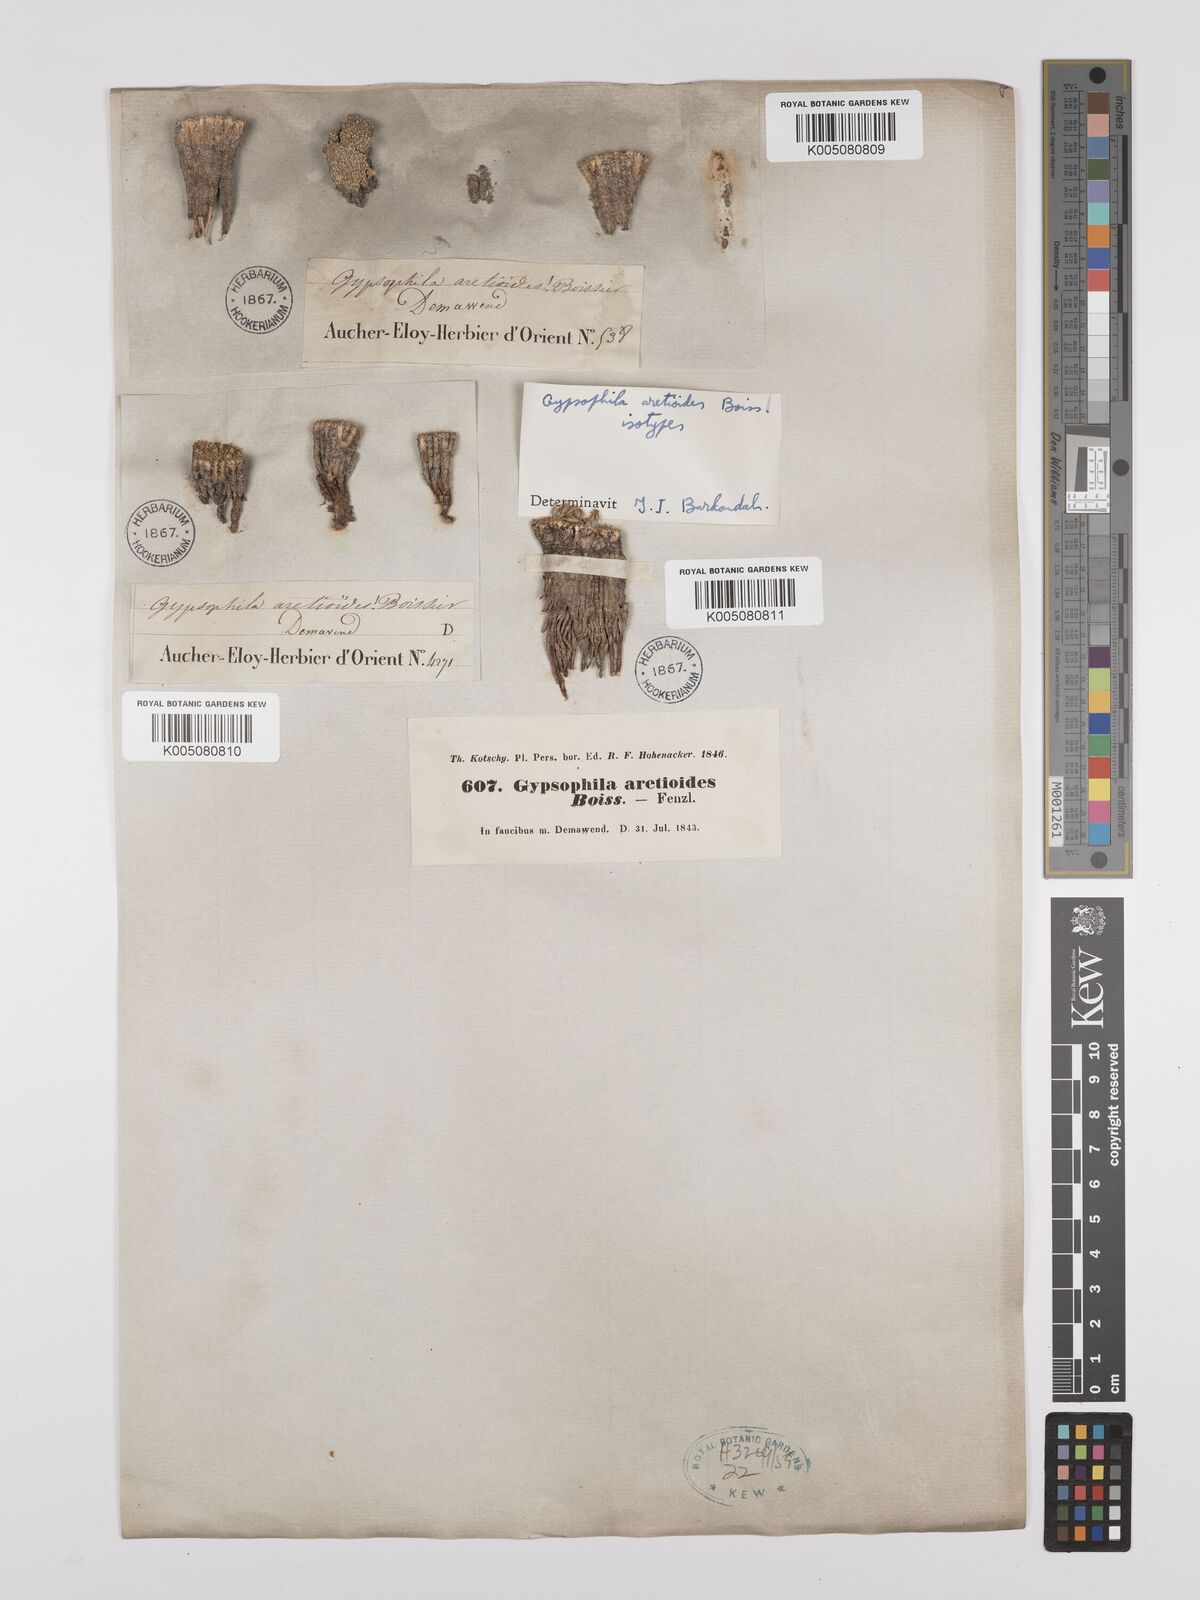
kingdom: Plantae
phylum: Tracheophyta
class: Magnoliopsida
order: Caryophyllales
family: Caryophyllaceae
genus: Gypsophila
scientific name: Gypsophila aretioides
